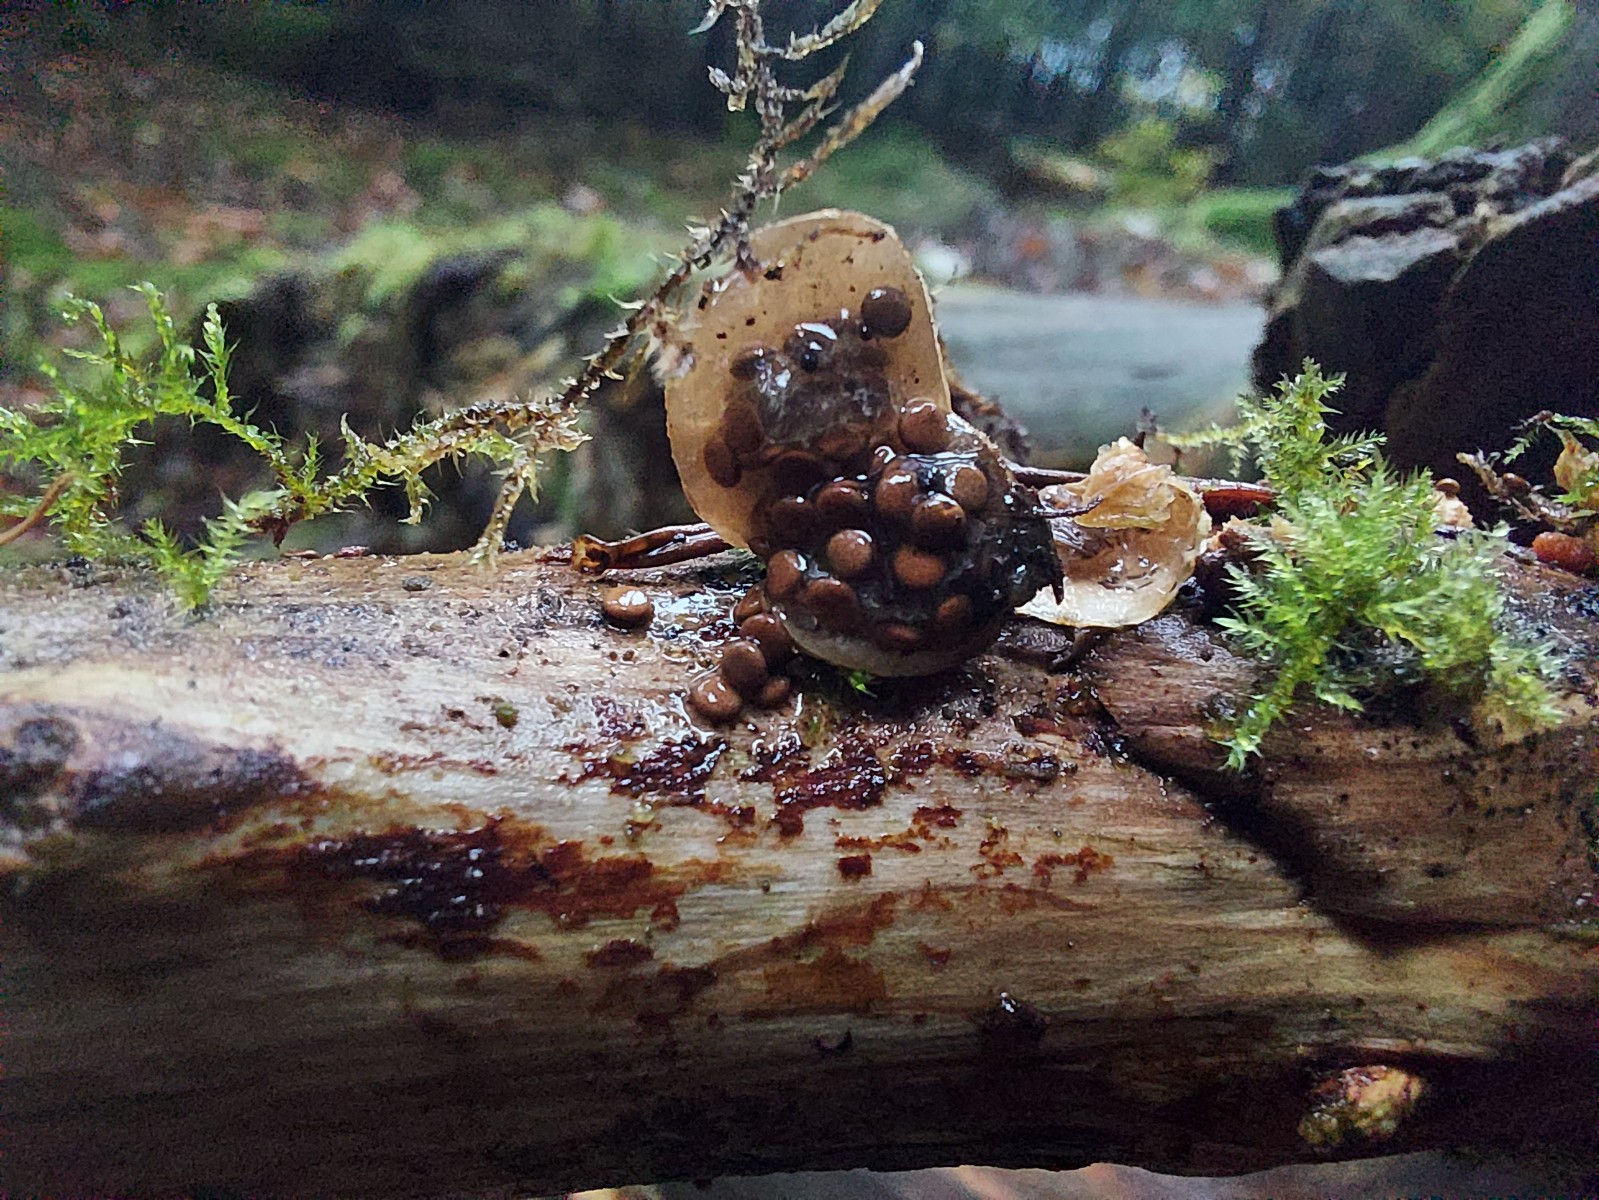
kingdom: Fungi
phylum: Basidiomycota
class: Agaricomycetes
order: Agaricales
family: Agaricaceae
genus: Nidularia
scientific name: Nidularia deformis
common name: pudesvamp
